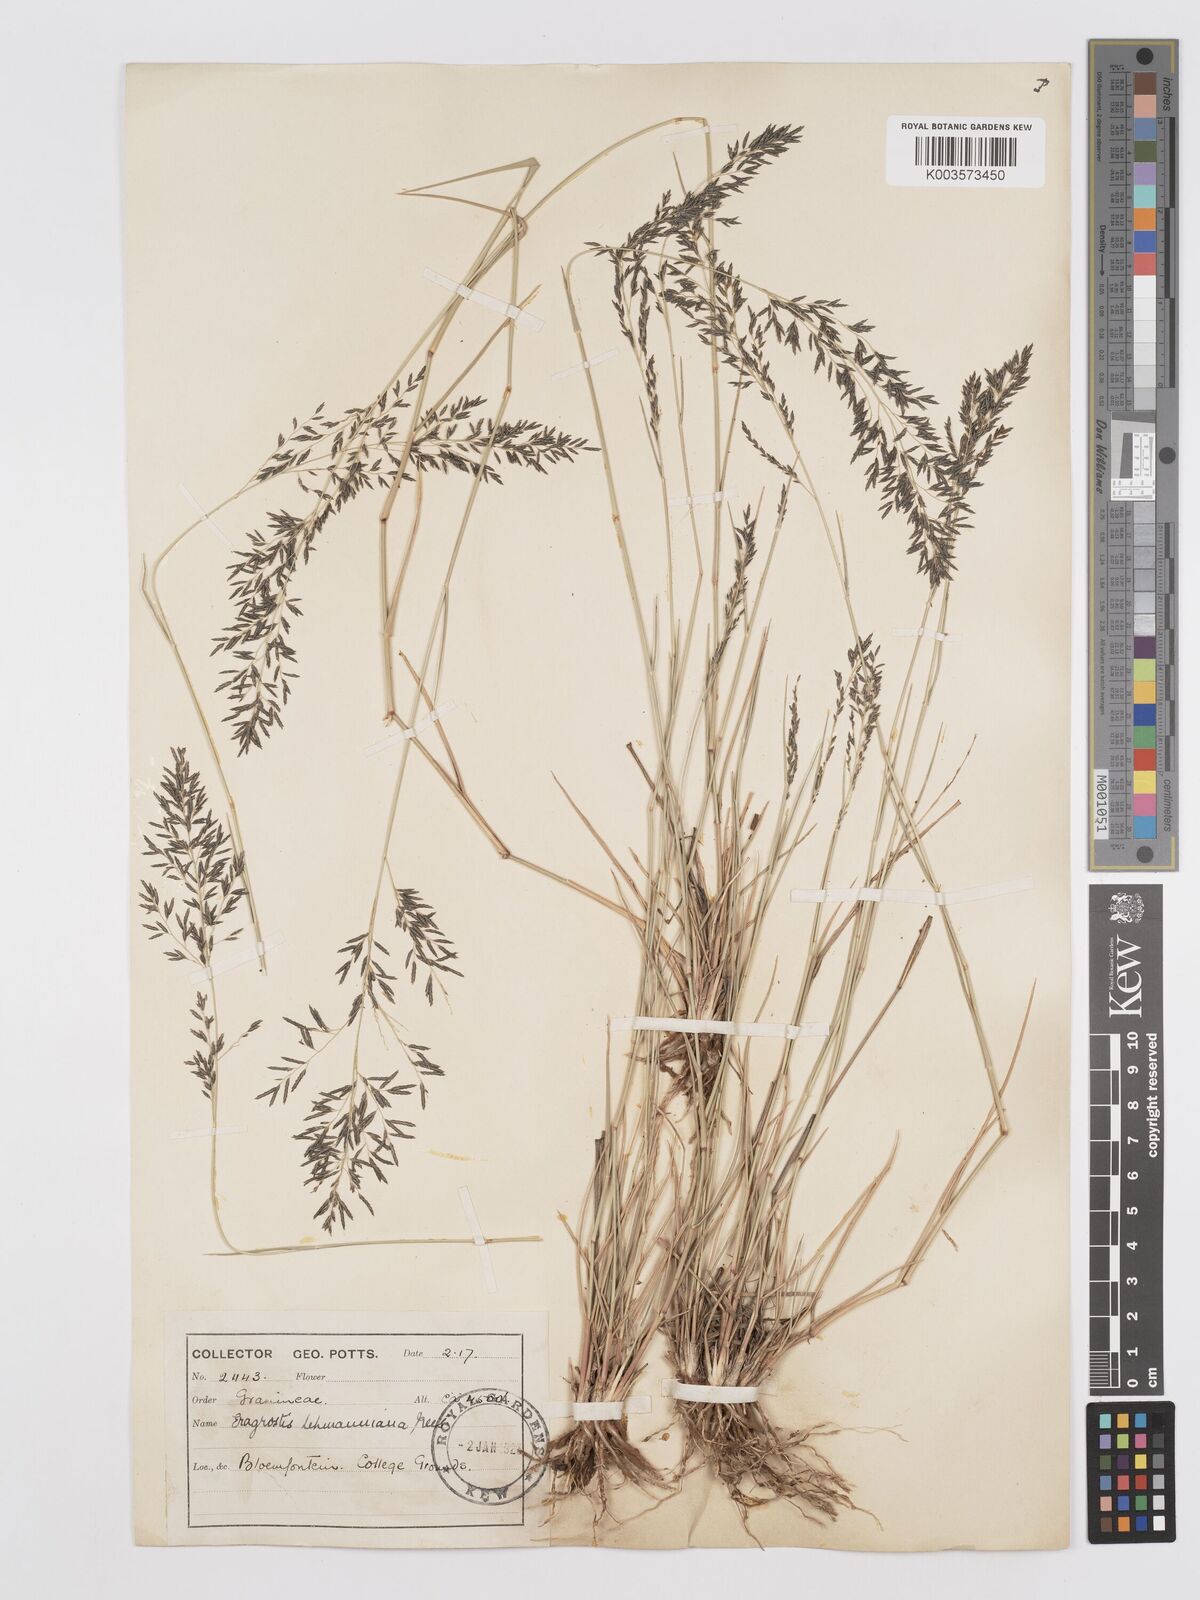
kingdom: Plantae
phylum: Tracheophyta
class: Liliopsida
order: Poales
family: Poaceae
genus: Eragrostis
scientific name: Eragrostis lehmanniana
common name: Lehmann lovegrass
